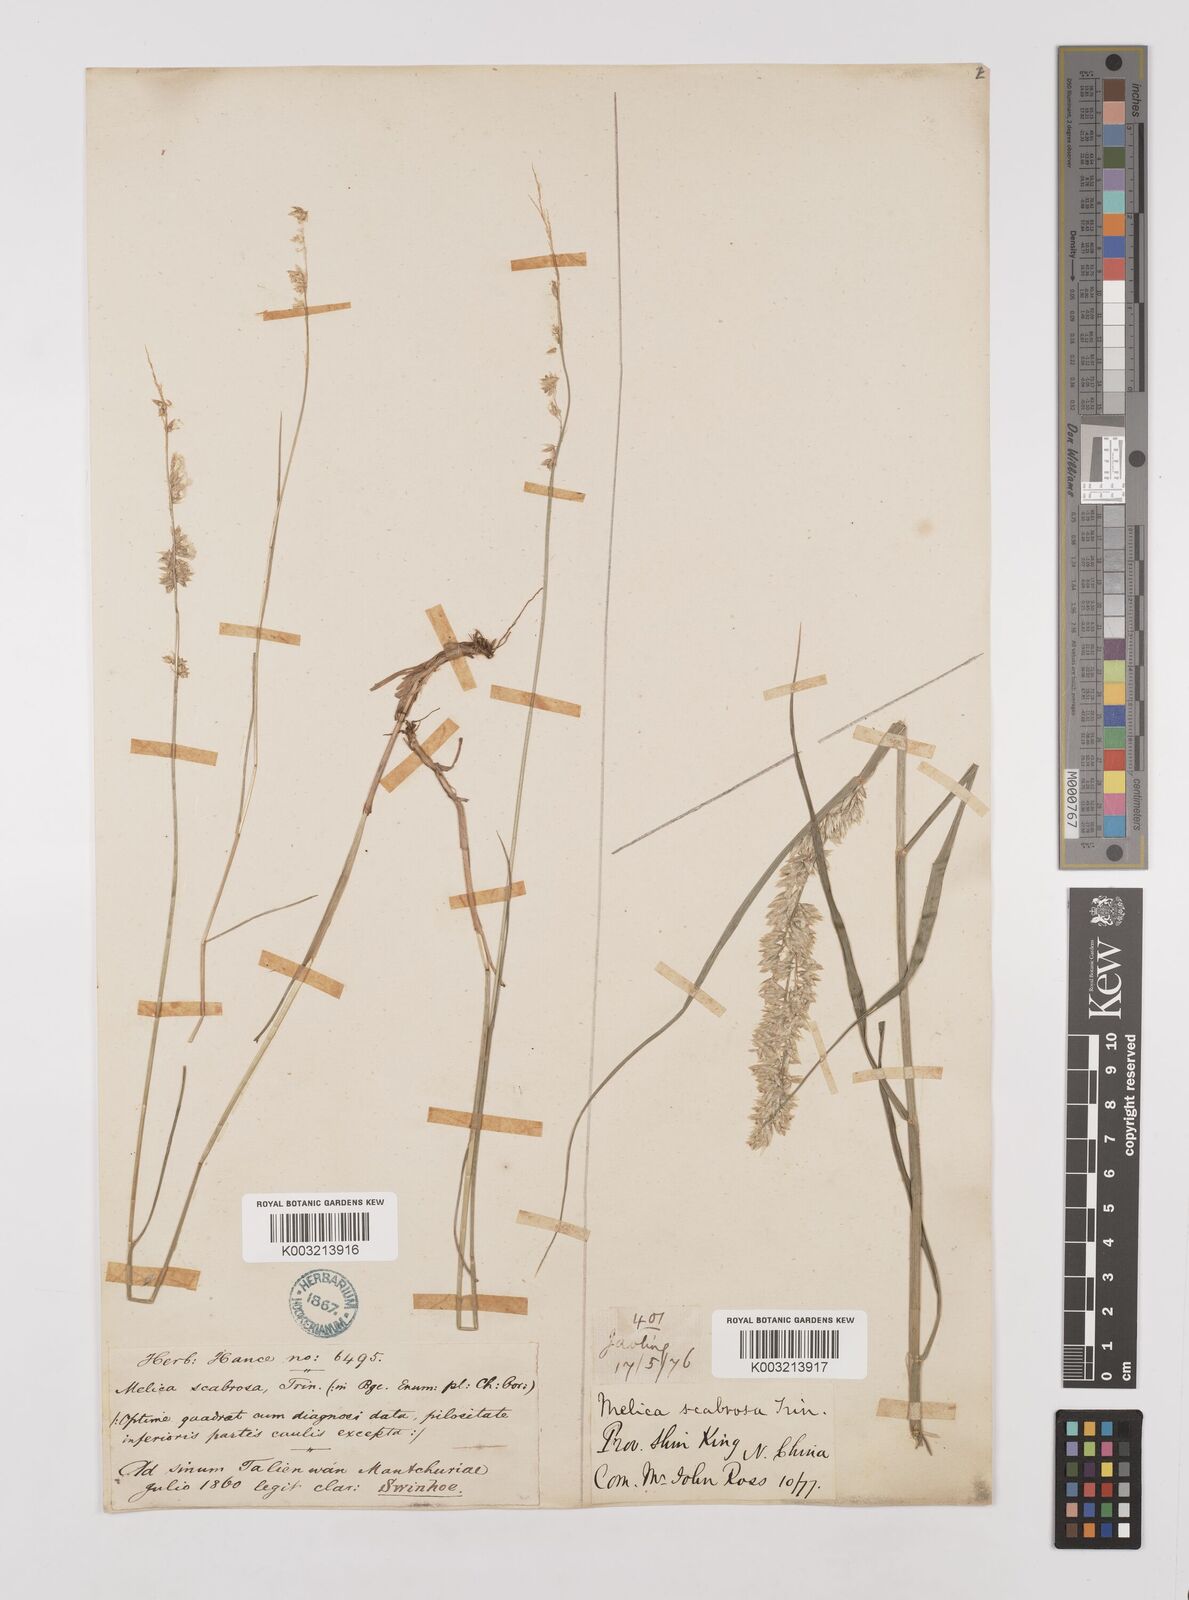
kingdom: Plantae
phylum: Tracheophyta
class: Liliopsida
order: Poales
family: Poaceae
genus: Melica
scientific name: Melica scabrosa
